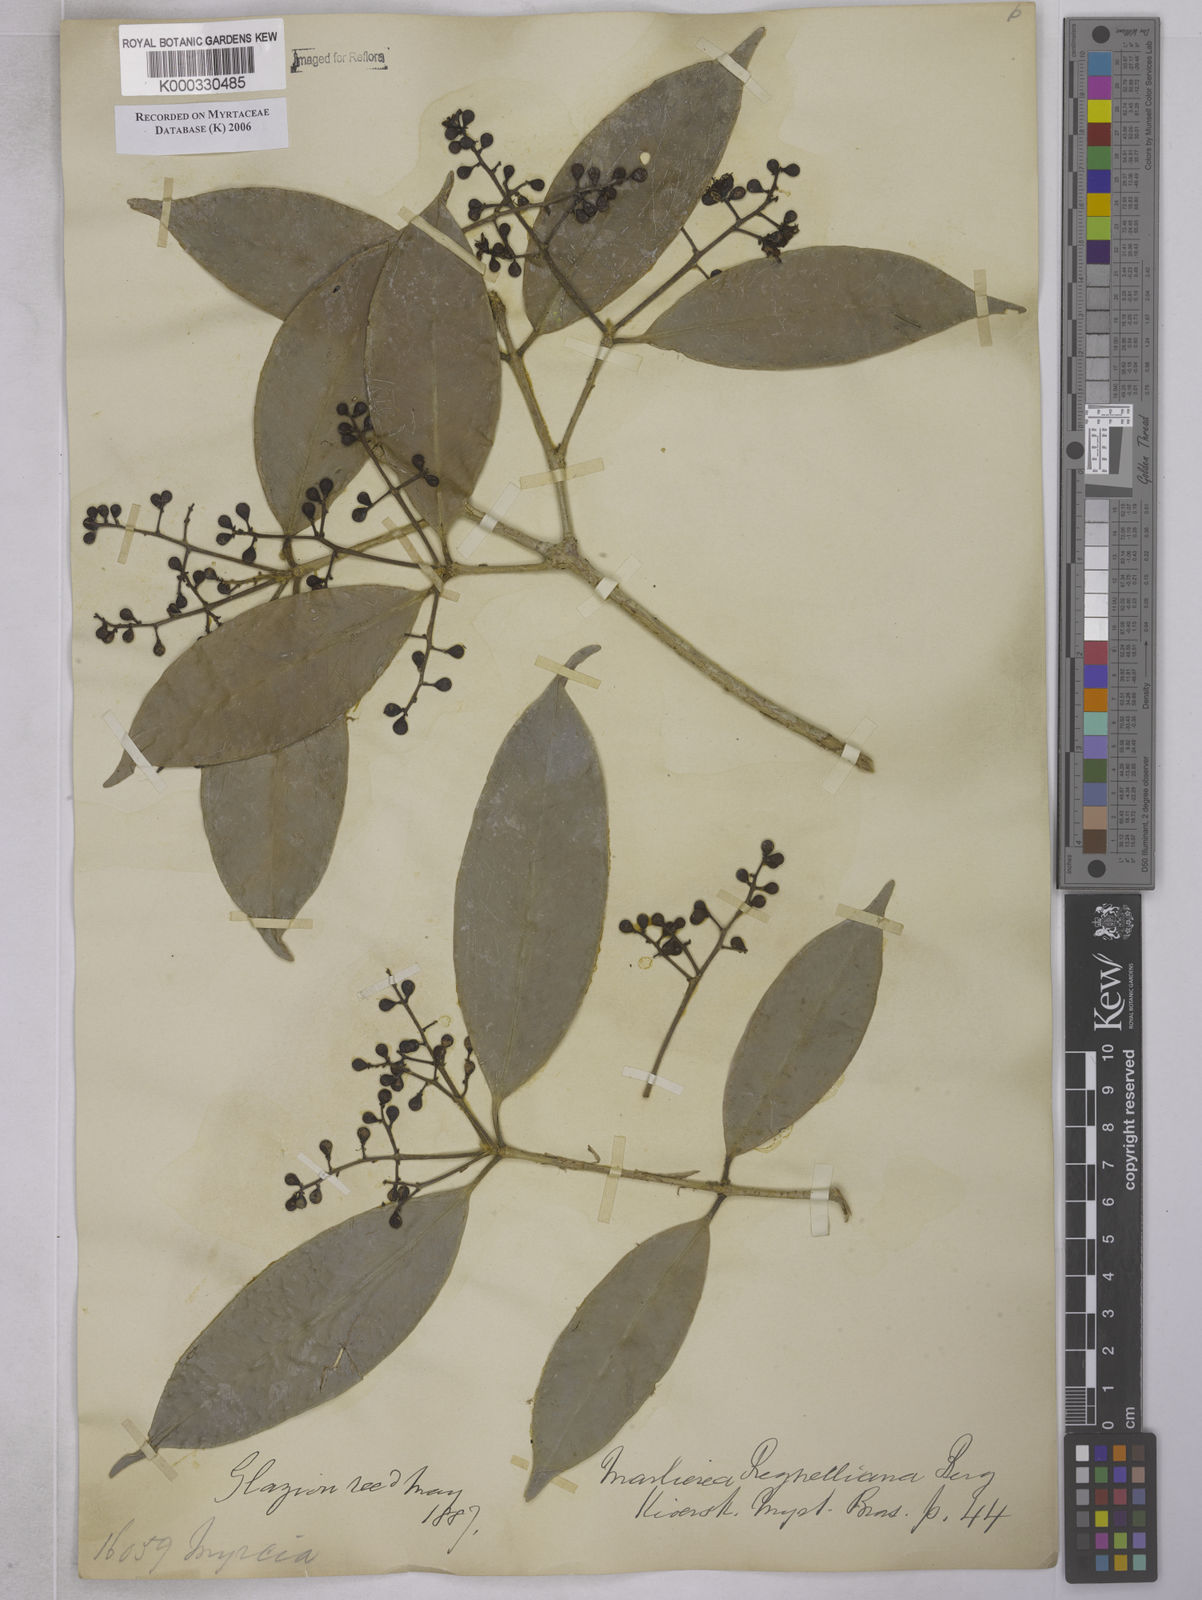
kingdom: Plantae
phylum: Tracheophyta
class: Magnoliopsida
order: Myrtales
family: Myrtaceae
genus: Myrcia
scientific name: Myrcia neoregeliana
